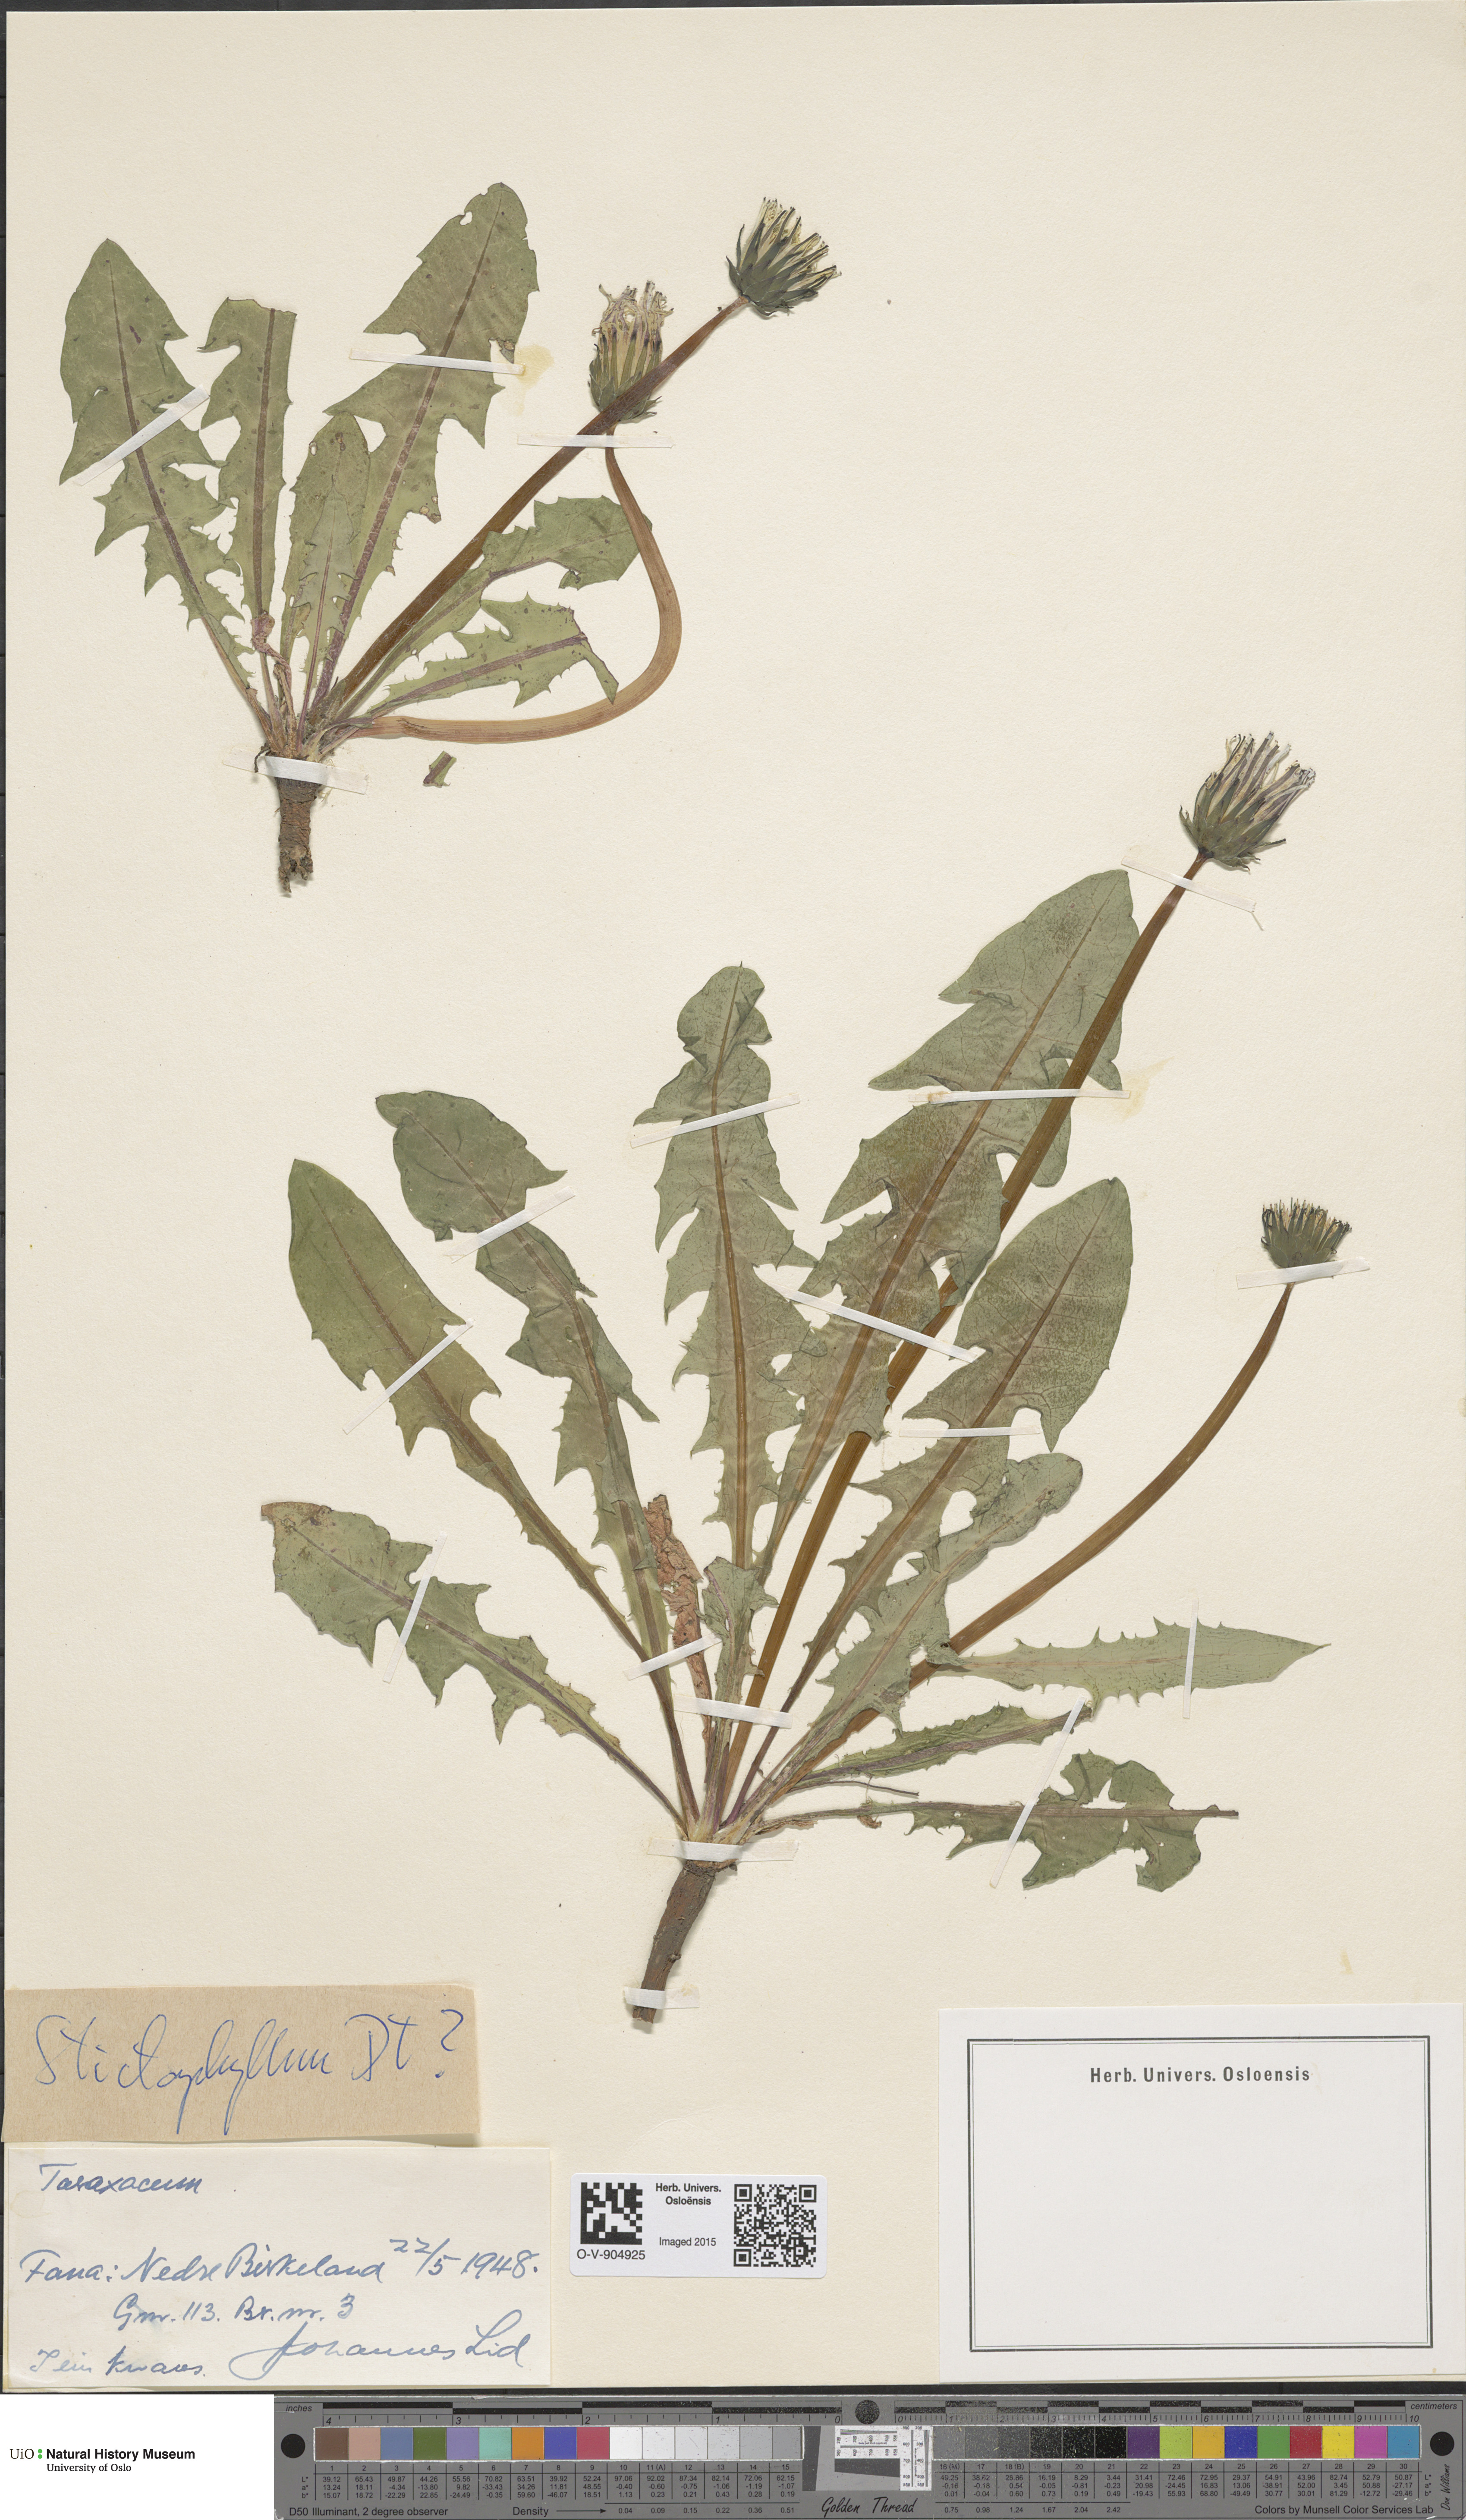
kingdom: Plantae
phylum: Tracheophyta
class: Magnoliopsida
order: Asterales
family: Asteraceae
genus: Taraxacum
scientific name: Taraxacum stictophyllum
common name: Stiff-leaved dandelion
